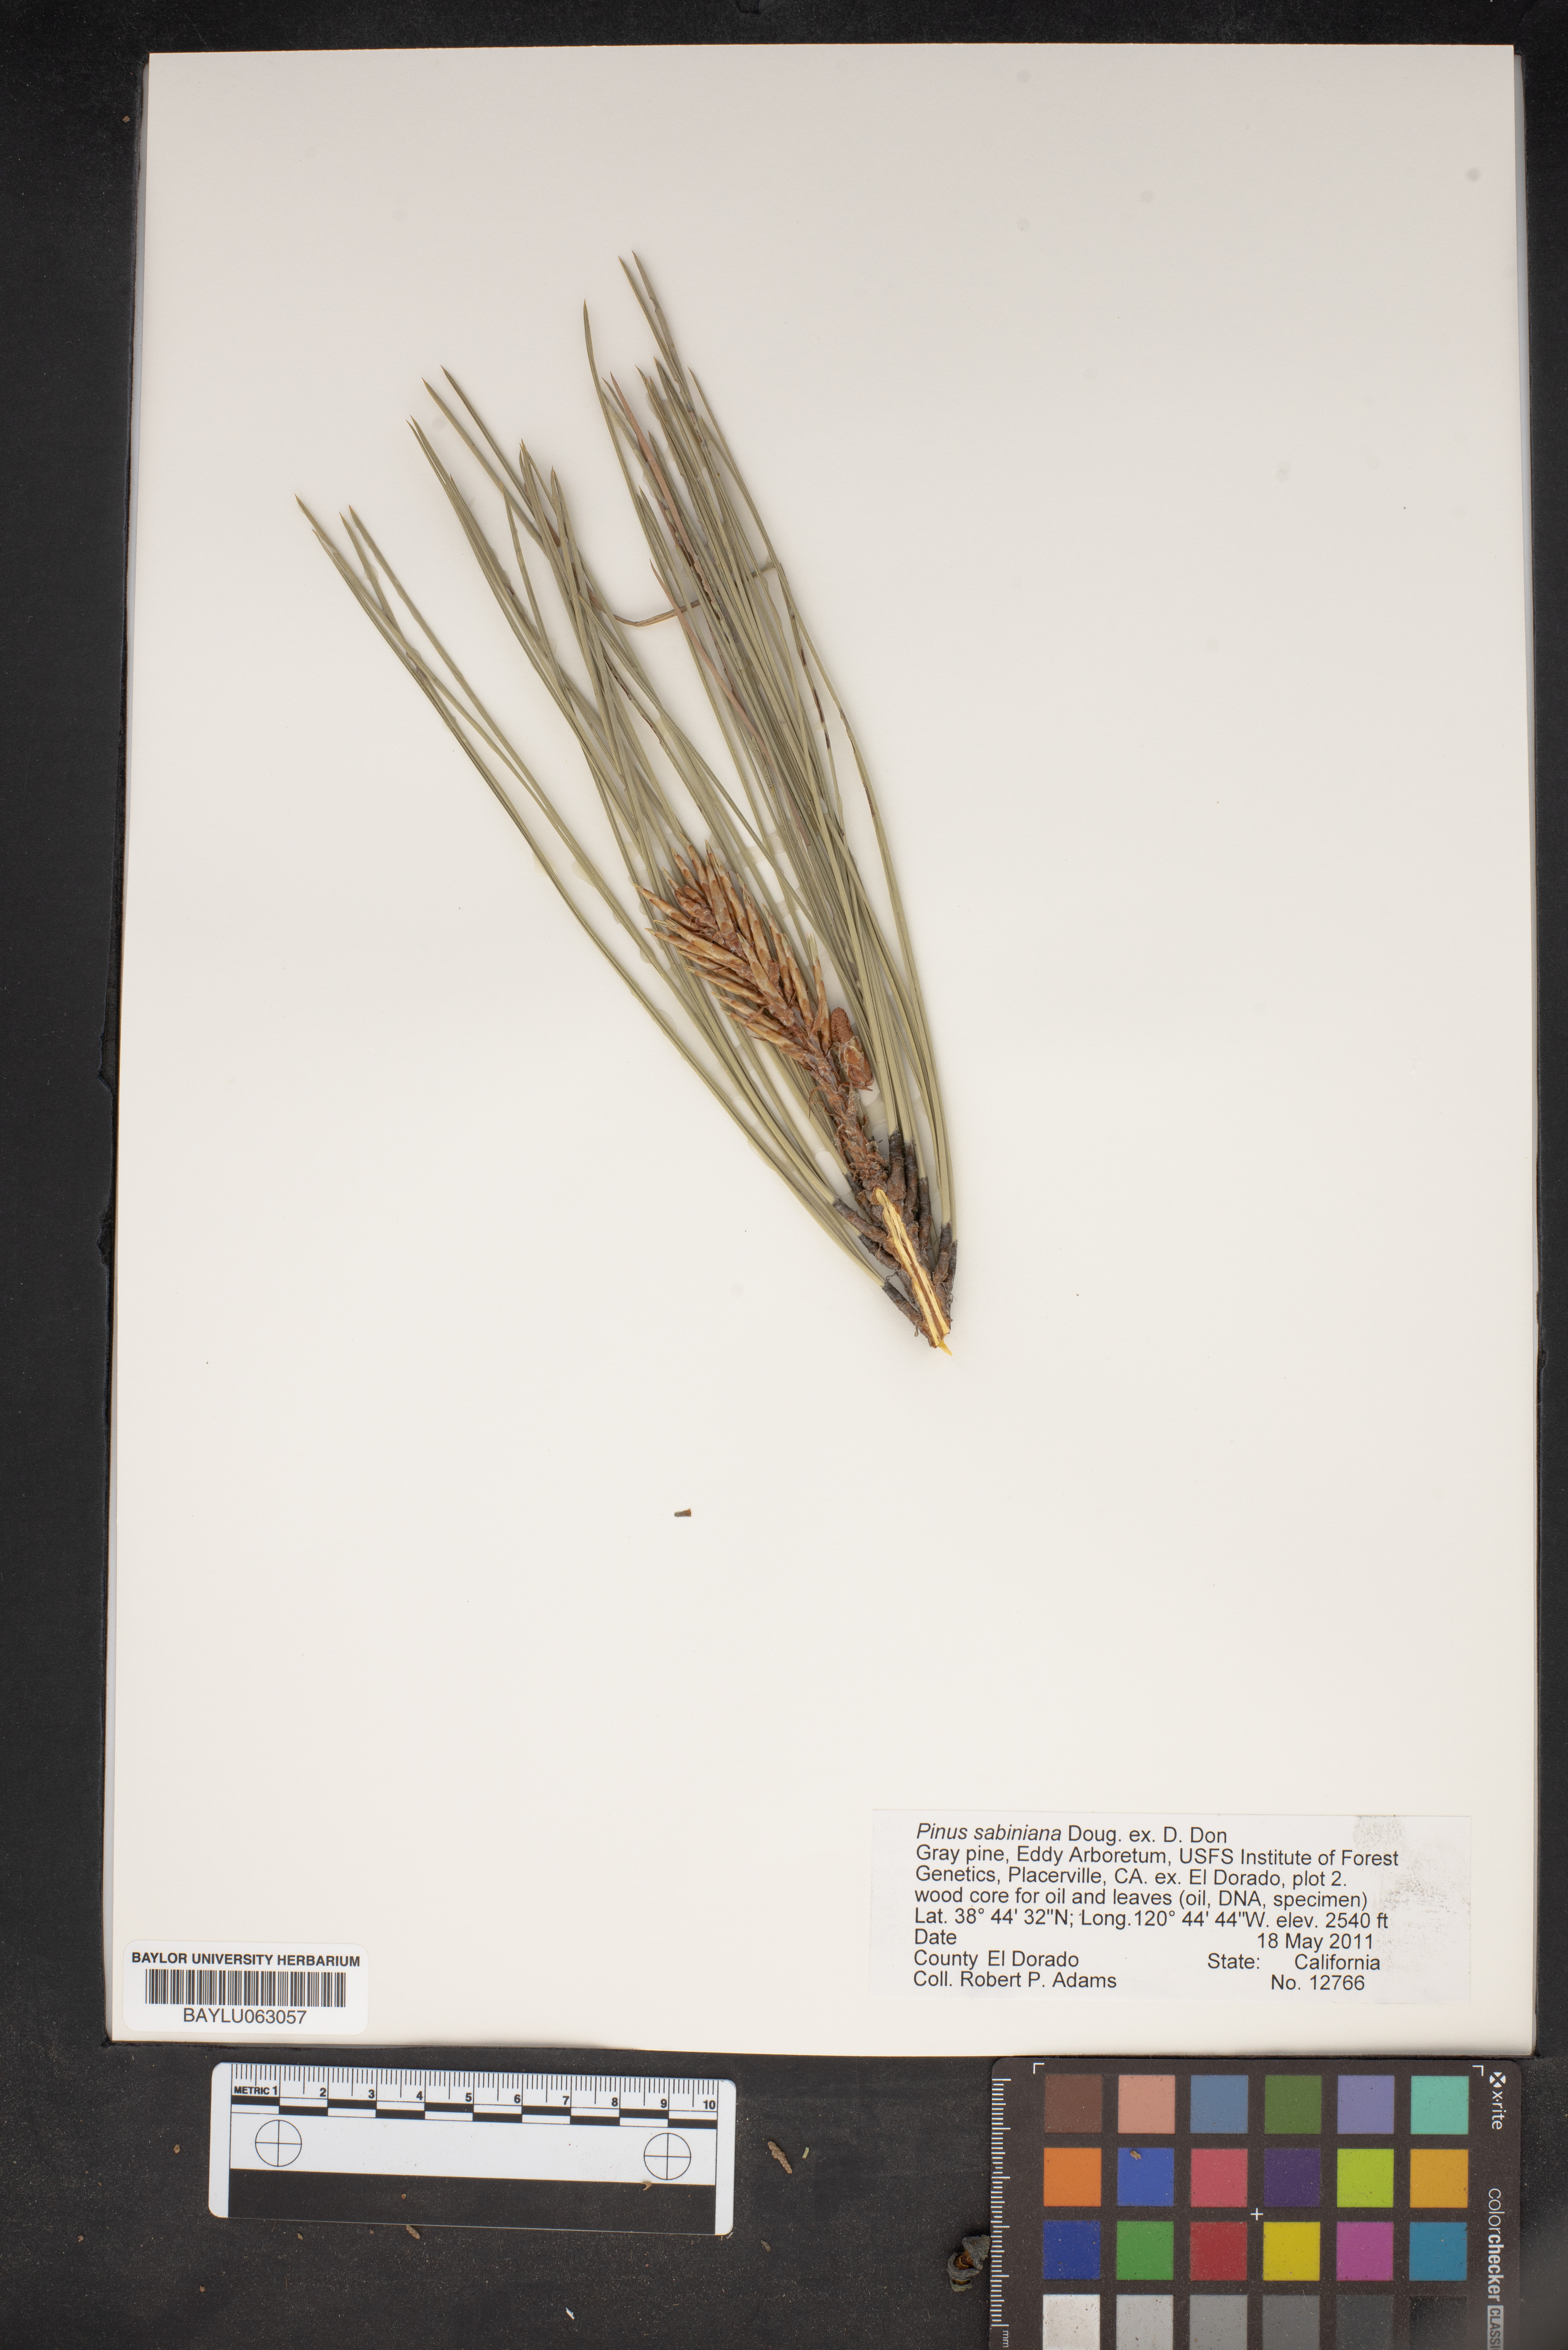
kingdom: Plantae
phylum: Tracheophyta
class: Pinopsida
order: Pinales
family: Pinaceae
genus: Pinus
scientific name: Pinus sabiniana
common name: Bull pine
